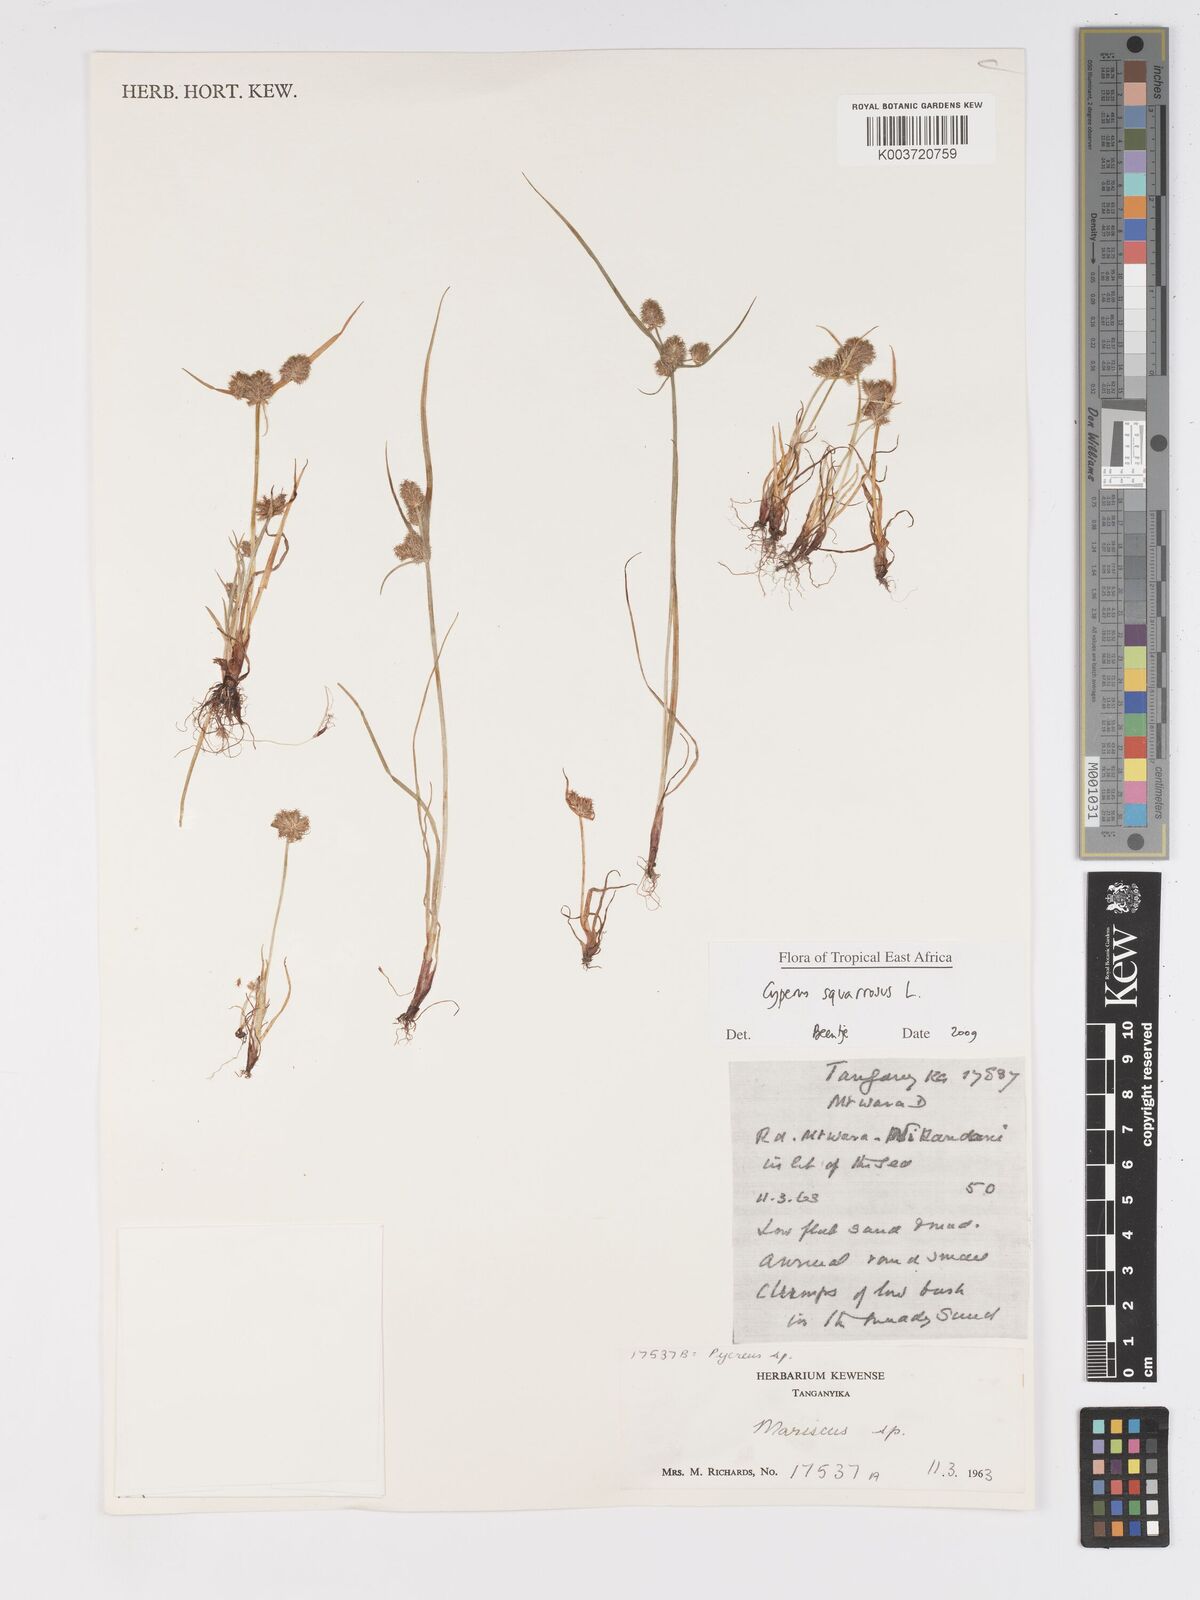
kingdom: Plantae
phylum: Tracheophyta
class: Liliopsida
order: Poales
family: Cyperaceae
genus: Cyperus
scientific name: Cyperus squarrosus
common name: Awned cyperus
